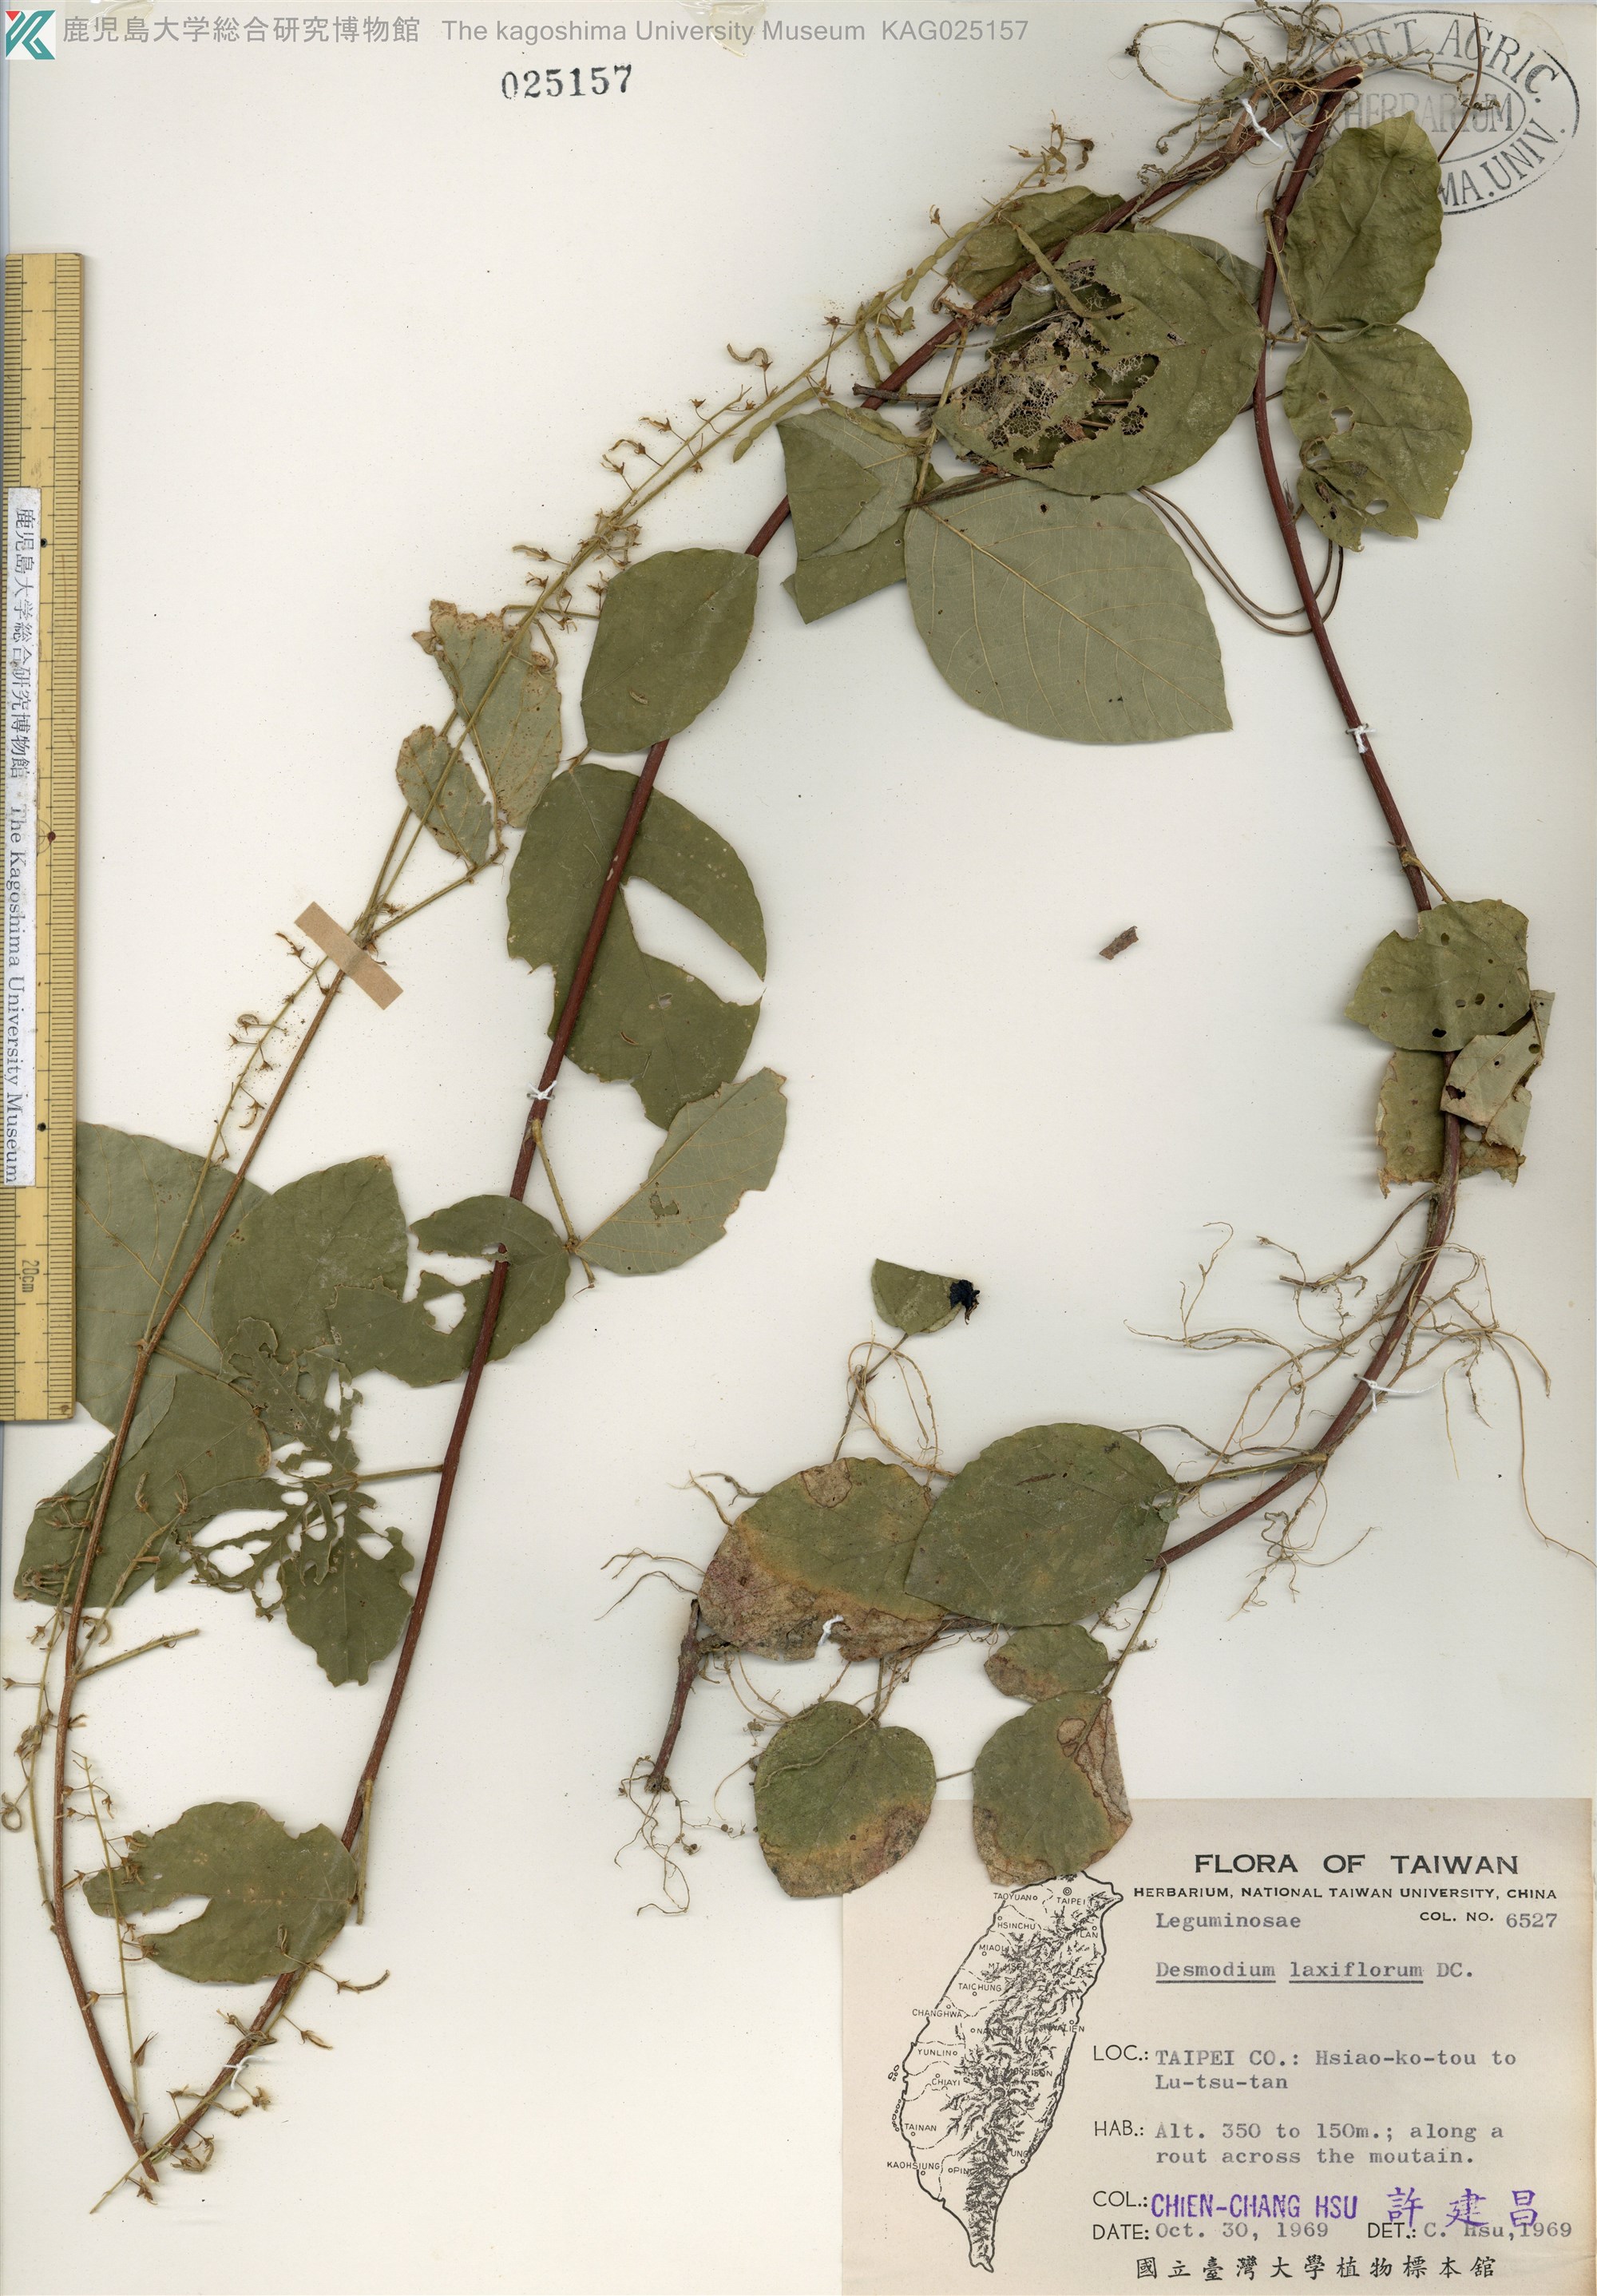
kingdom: Plantae
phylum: Tracheophyta
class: Magnoliopsida
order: Fabales
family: Fabaceae
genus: Sohmaea
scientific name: Sohmaea laxiflora
